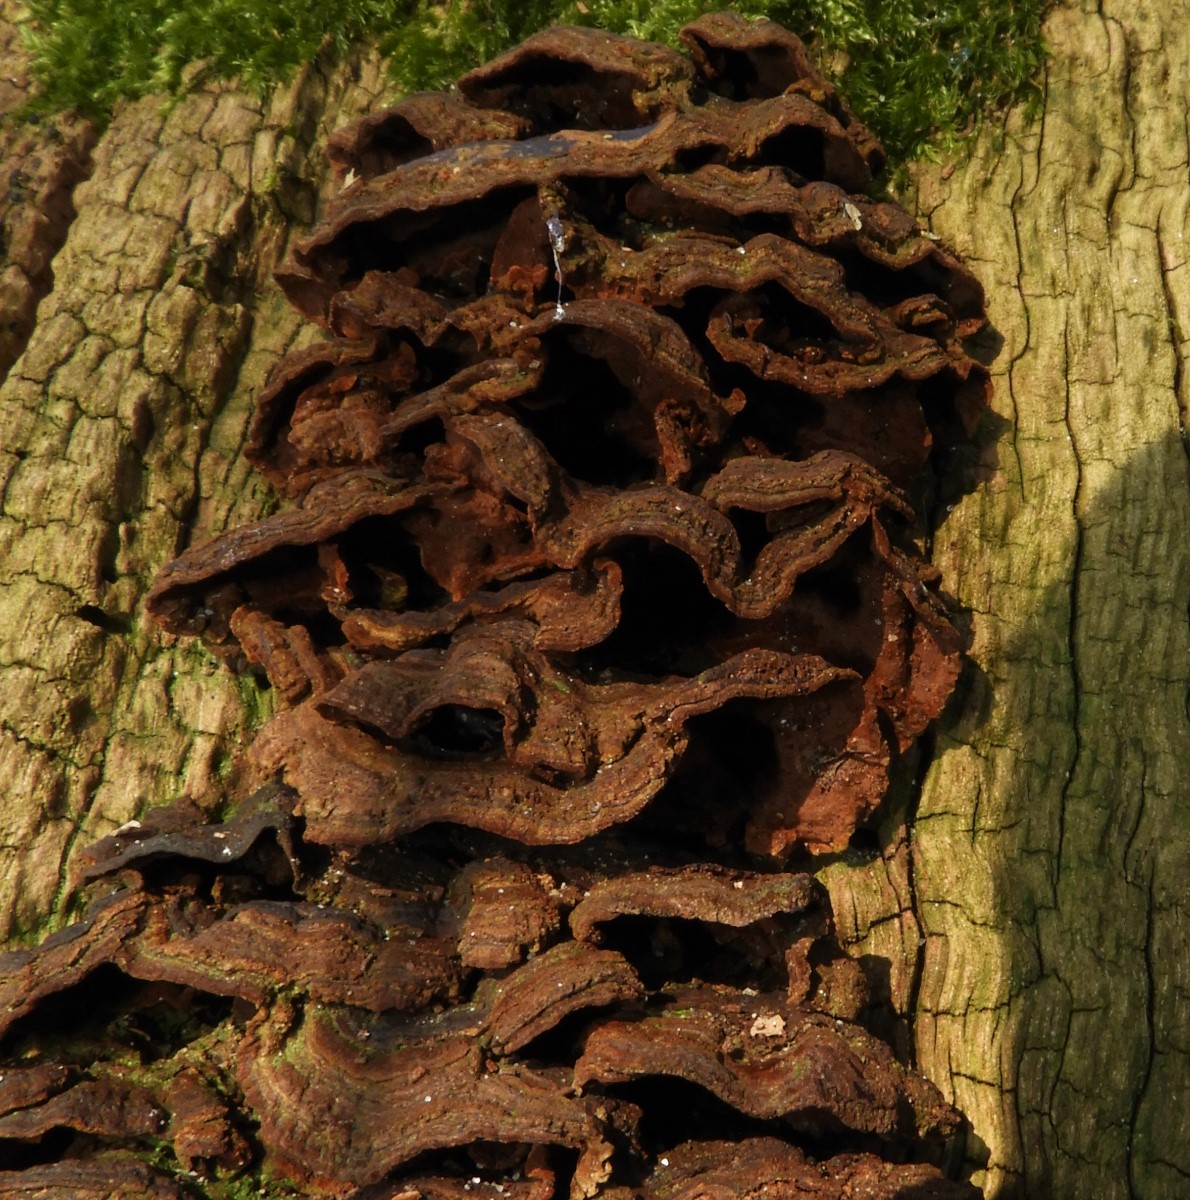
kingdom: Fungi
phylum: Basidiomycota
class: Agaricomycetes
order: Hymenochaetales
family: Hymenochaetaceae
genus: Hymenochaete
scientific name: Hymenochaete rubiginosa
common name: stiv ruslædersvamp
